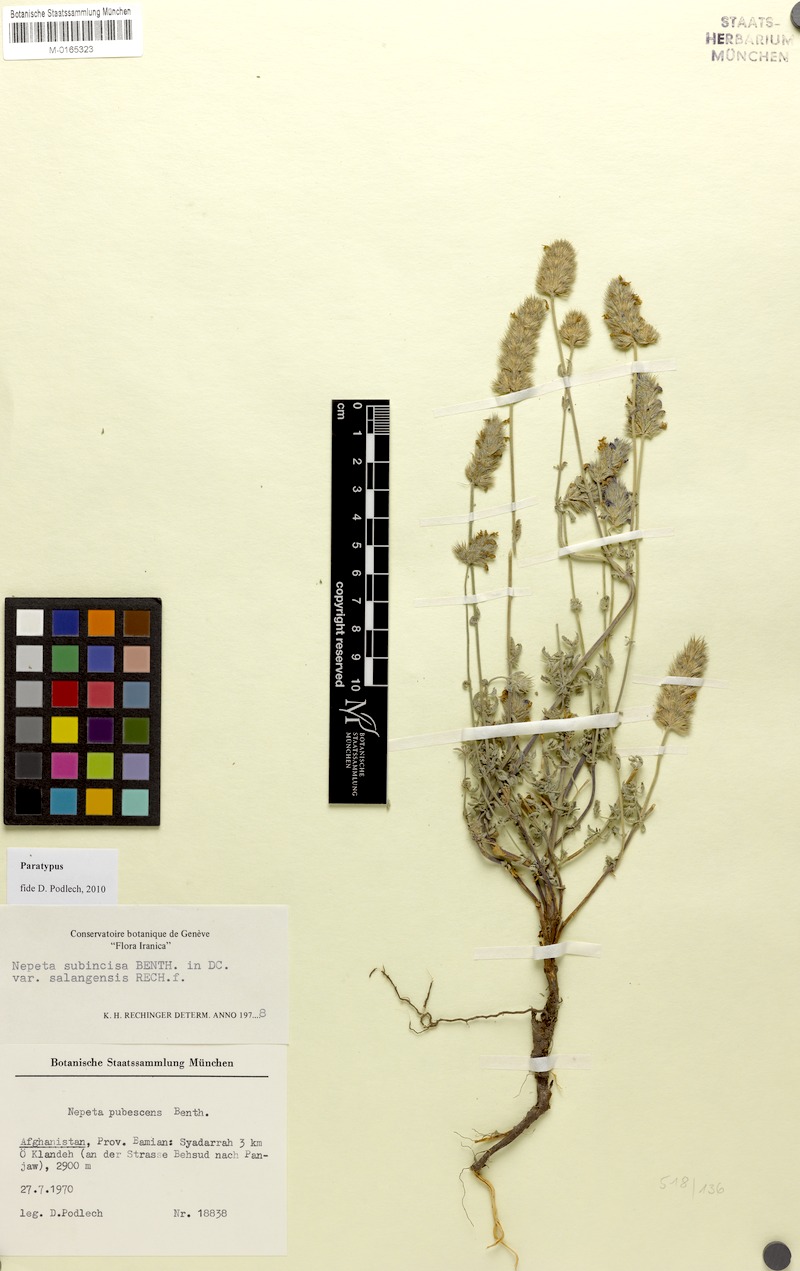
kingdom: Plantae
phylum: Tracheophyta
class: Magnoliopsida
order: Lamiales
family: Lamiaceae
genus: Nepeta
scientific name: Nepeta subincisa
